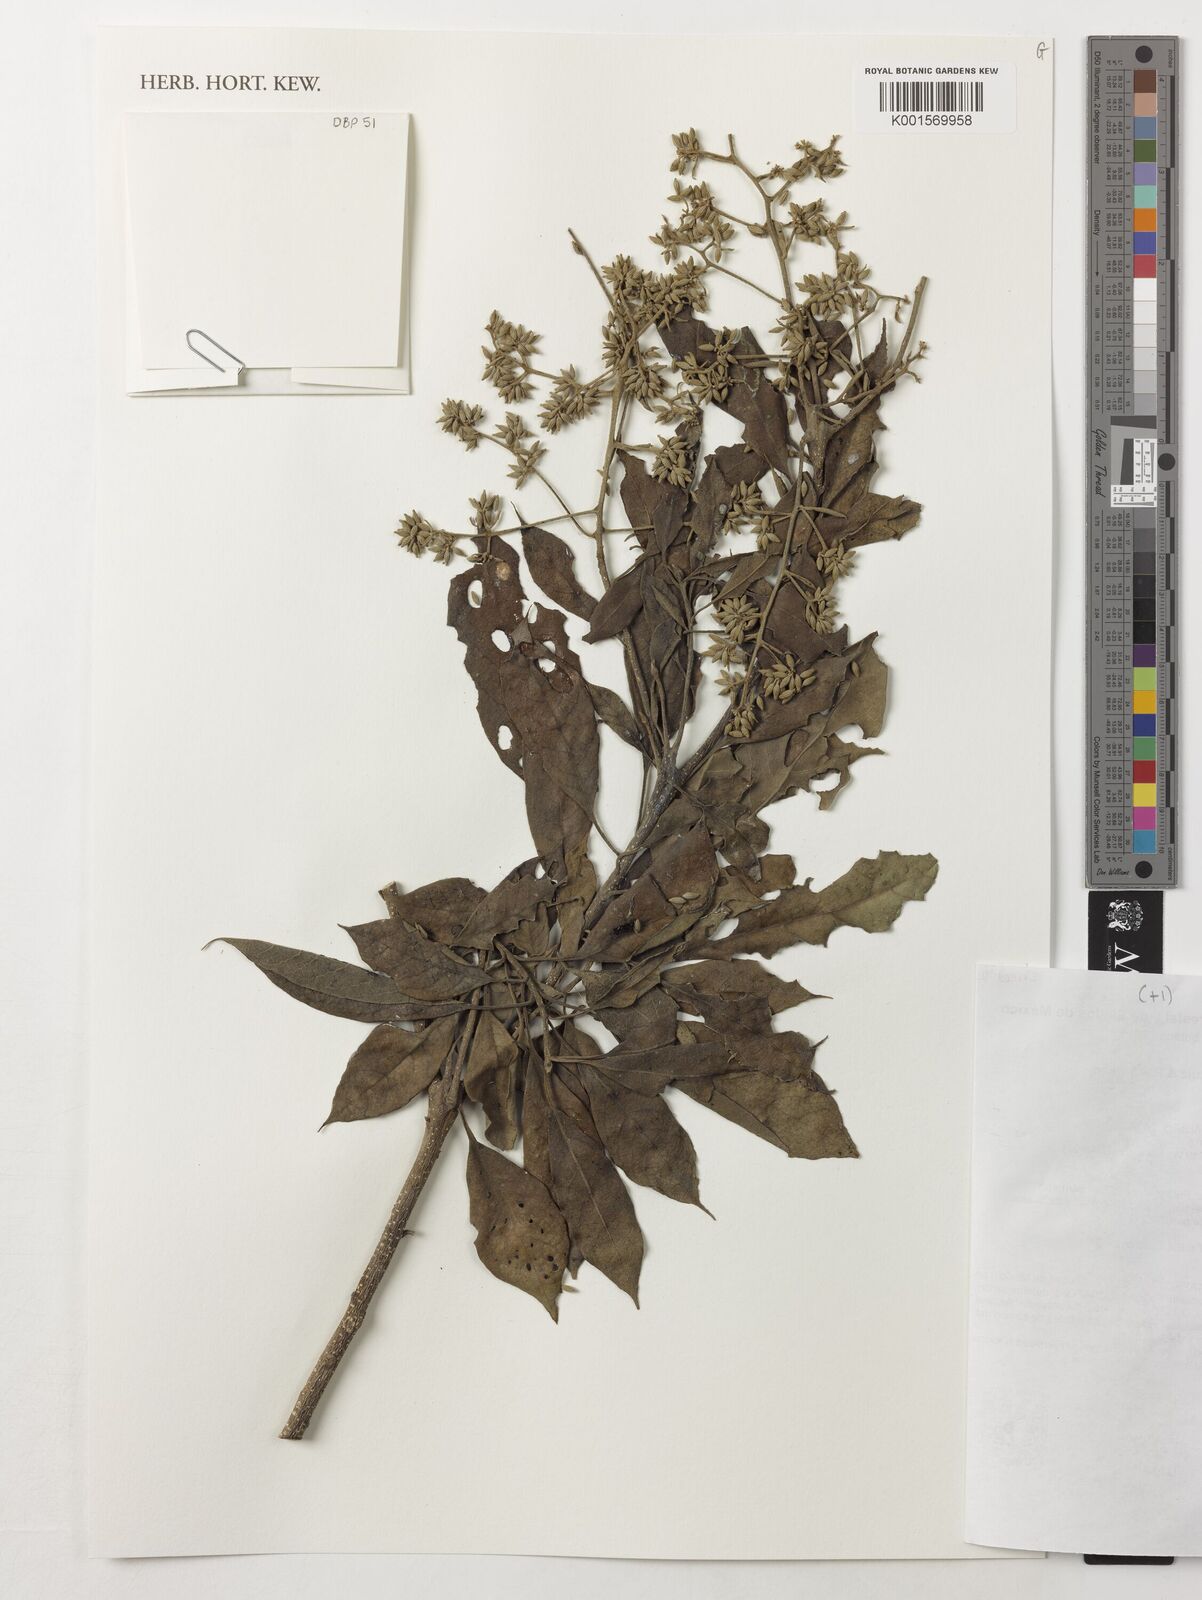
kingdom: Plantae
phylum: Tracheophyta
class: Magnoliopsida
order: Boraginales
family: Cordiaceae
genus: Cordia
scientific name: Cordia alliodora
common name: Spanish elm
